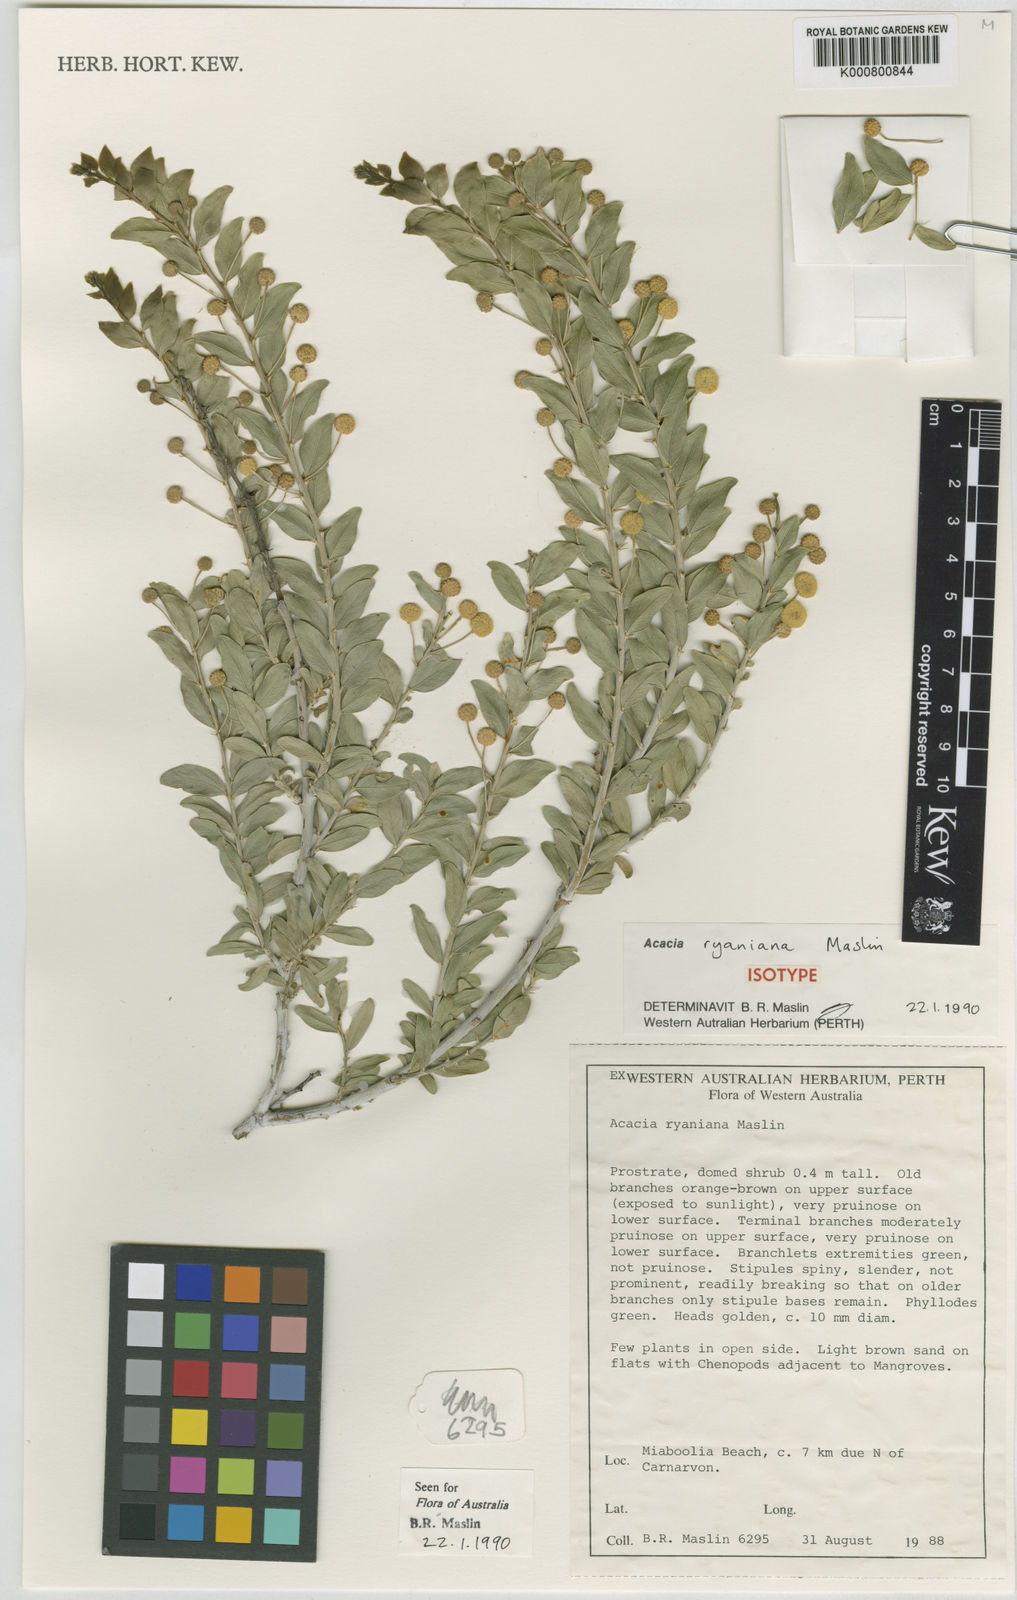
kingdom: Plantae
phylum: Tracheophyta
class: Magnoliopsida
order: Fabales
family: Fabaceae
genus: Acacia
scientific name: Acacia ryaniana
